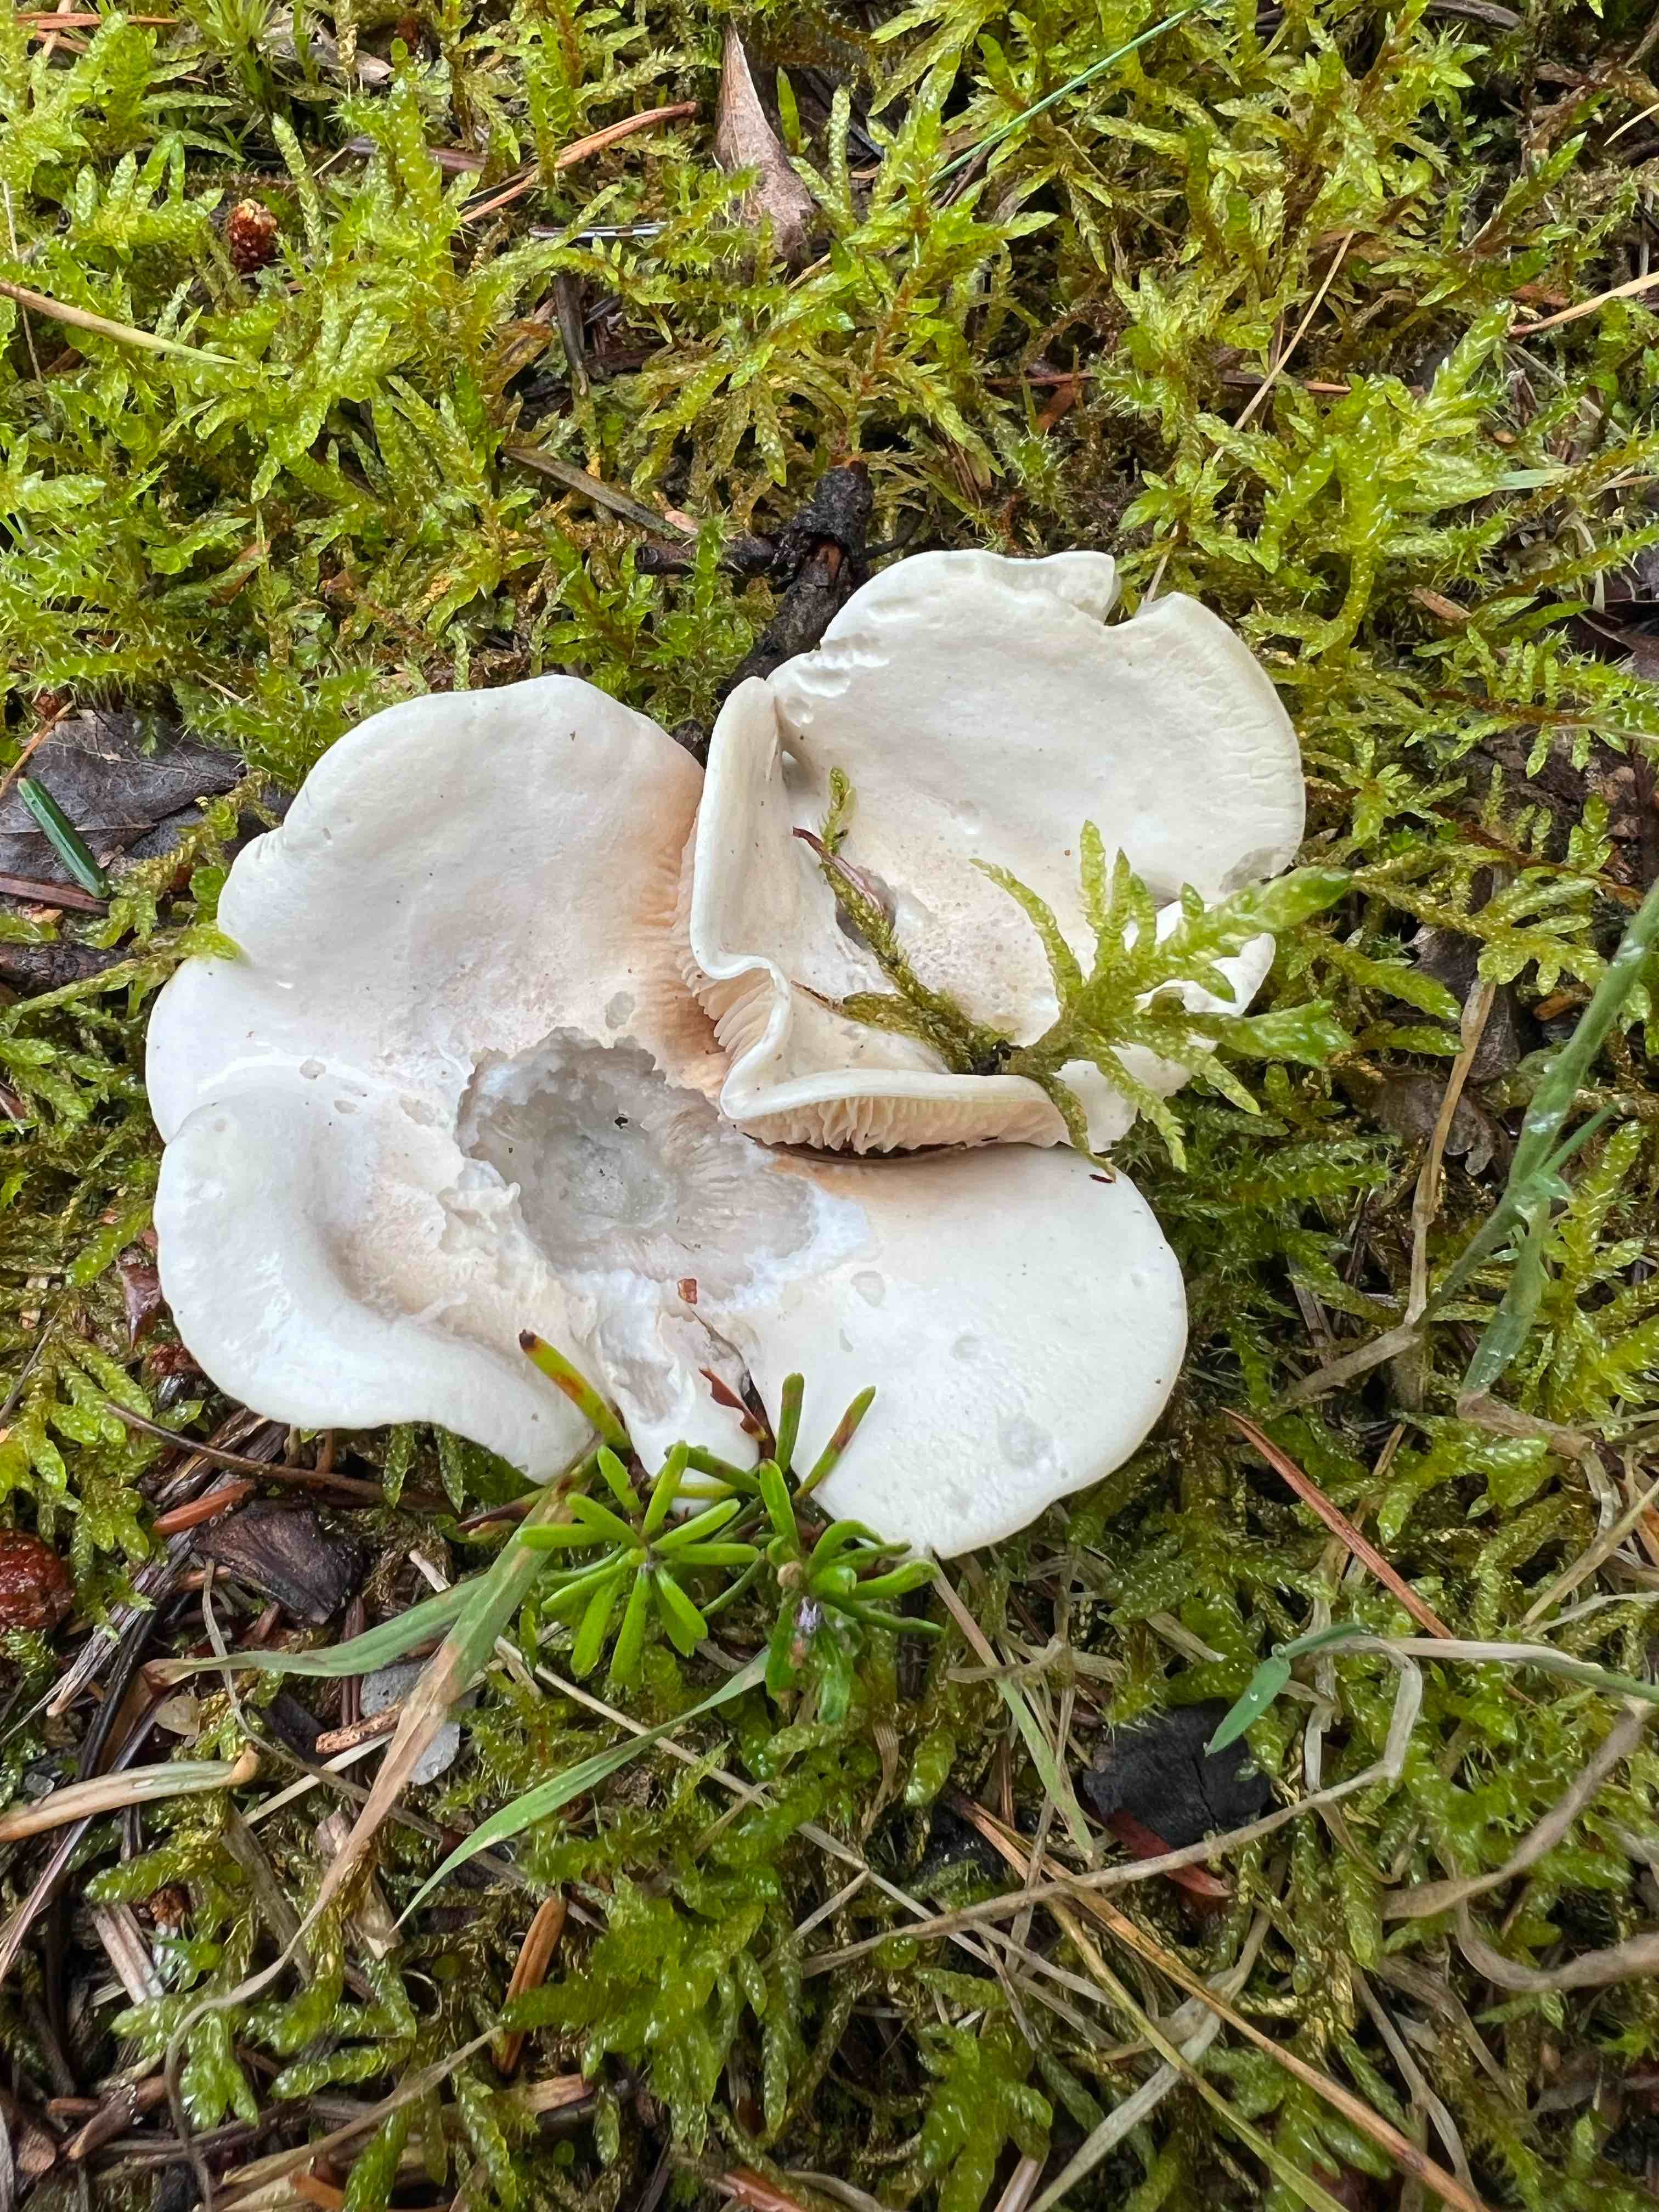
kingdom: Fungi
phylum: Basidiomycota
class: Agaricomycetes
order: Agaricales
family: Entolomataceae
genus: Clitopilus
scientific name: Clitopilus prunulus
